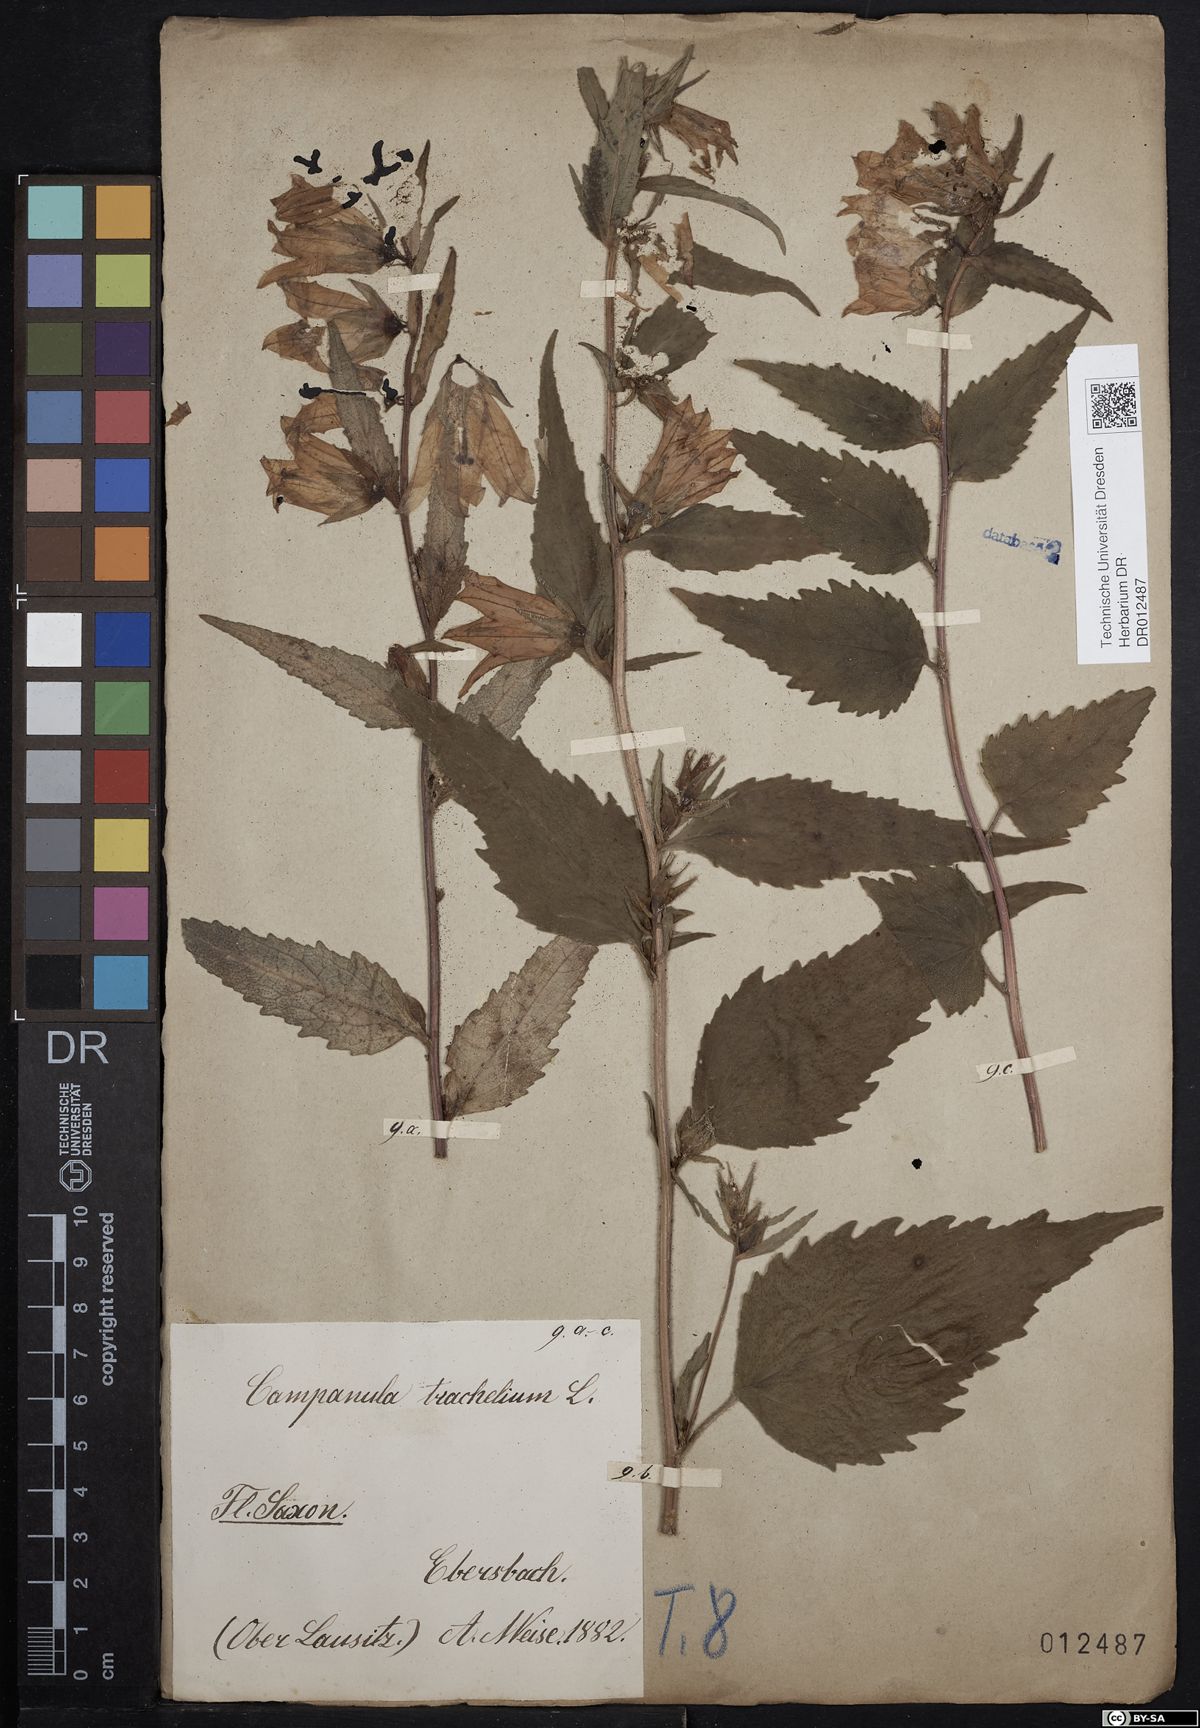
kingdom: Plantae
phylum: Tracheophyta
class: Magnoliopsida
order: Asterales
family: Campanulaceae
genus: Campanula
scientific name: Campanula trachelium
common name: Nettle-leaved bellflower
